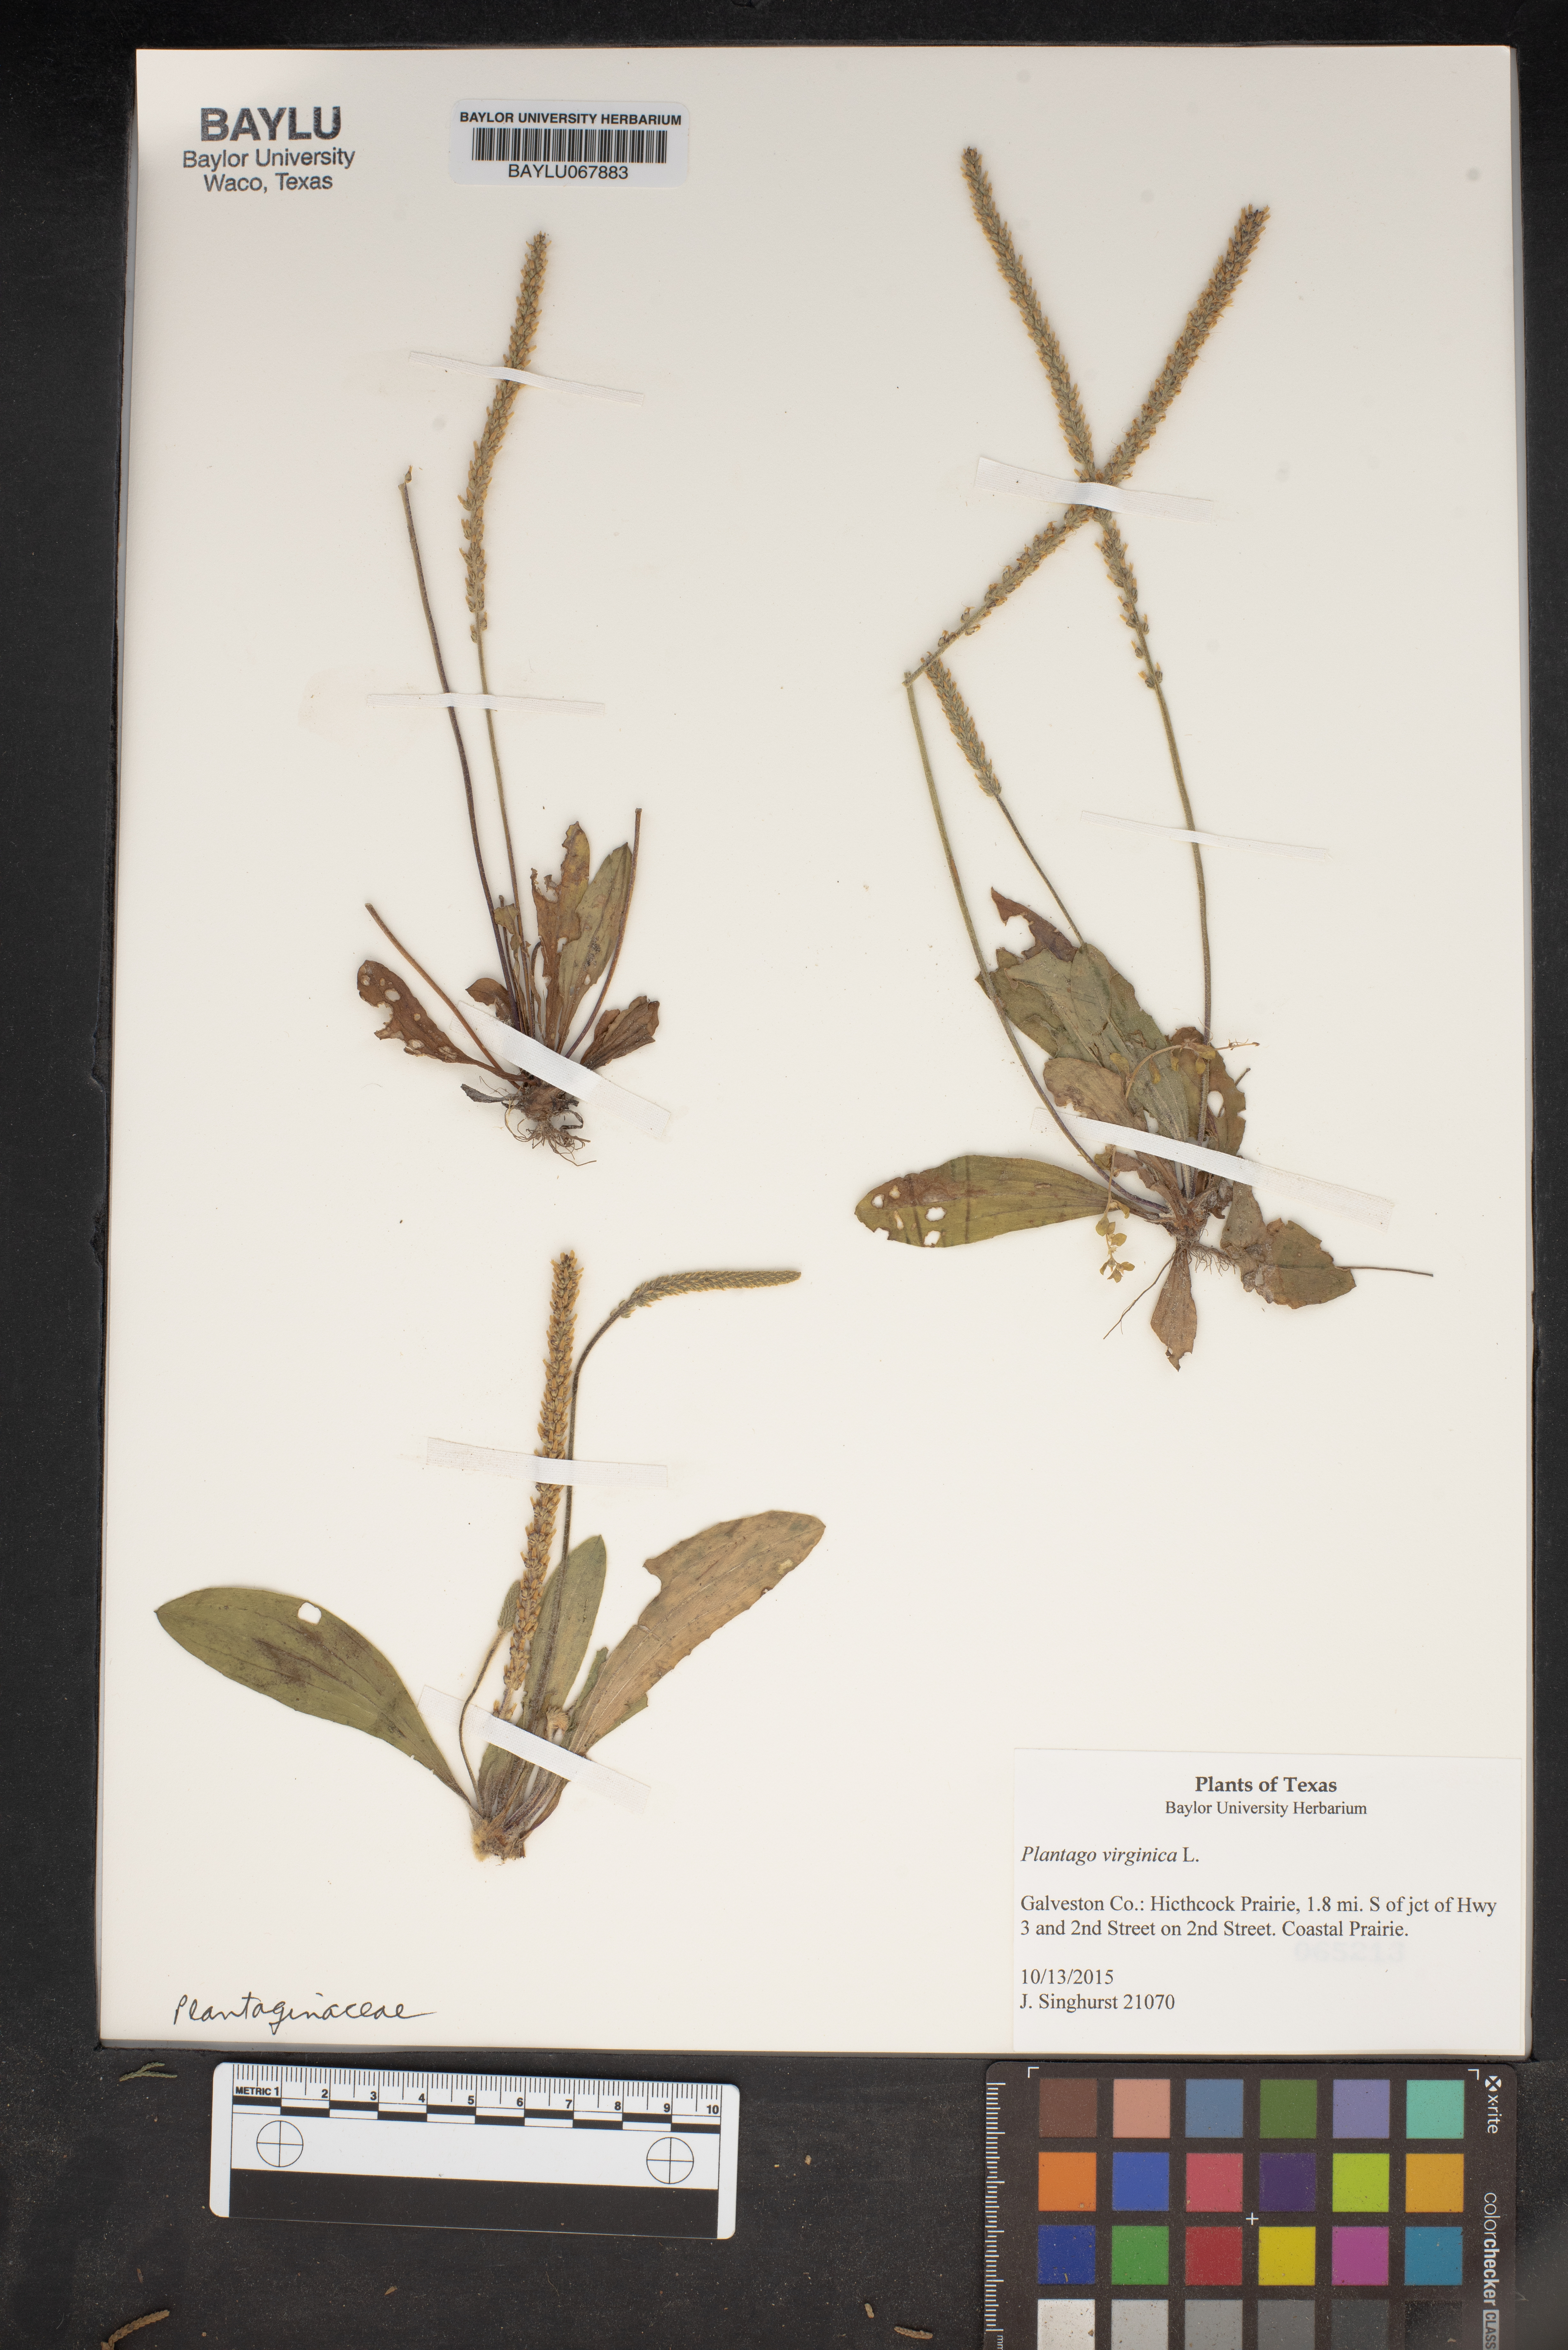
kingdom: Plantae
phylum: Tracheophyta
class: Magnoliopsida
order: Lamiales
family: Plantaginaceae
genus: Plantago
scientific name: Plantago virginica
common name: Hoary plantain
